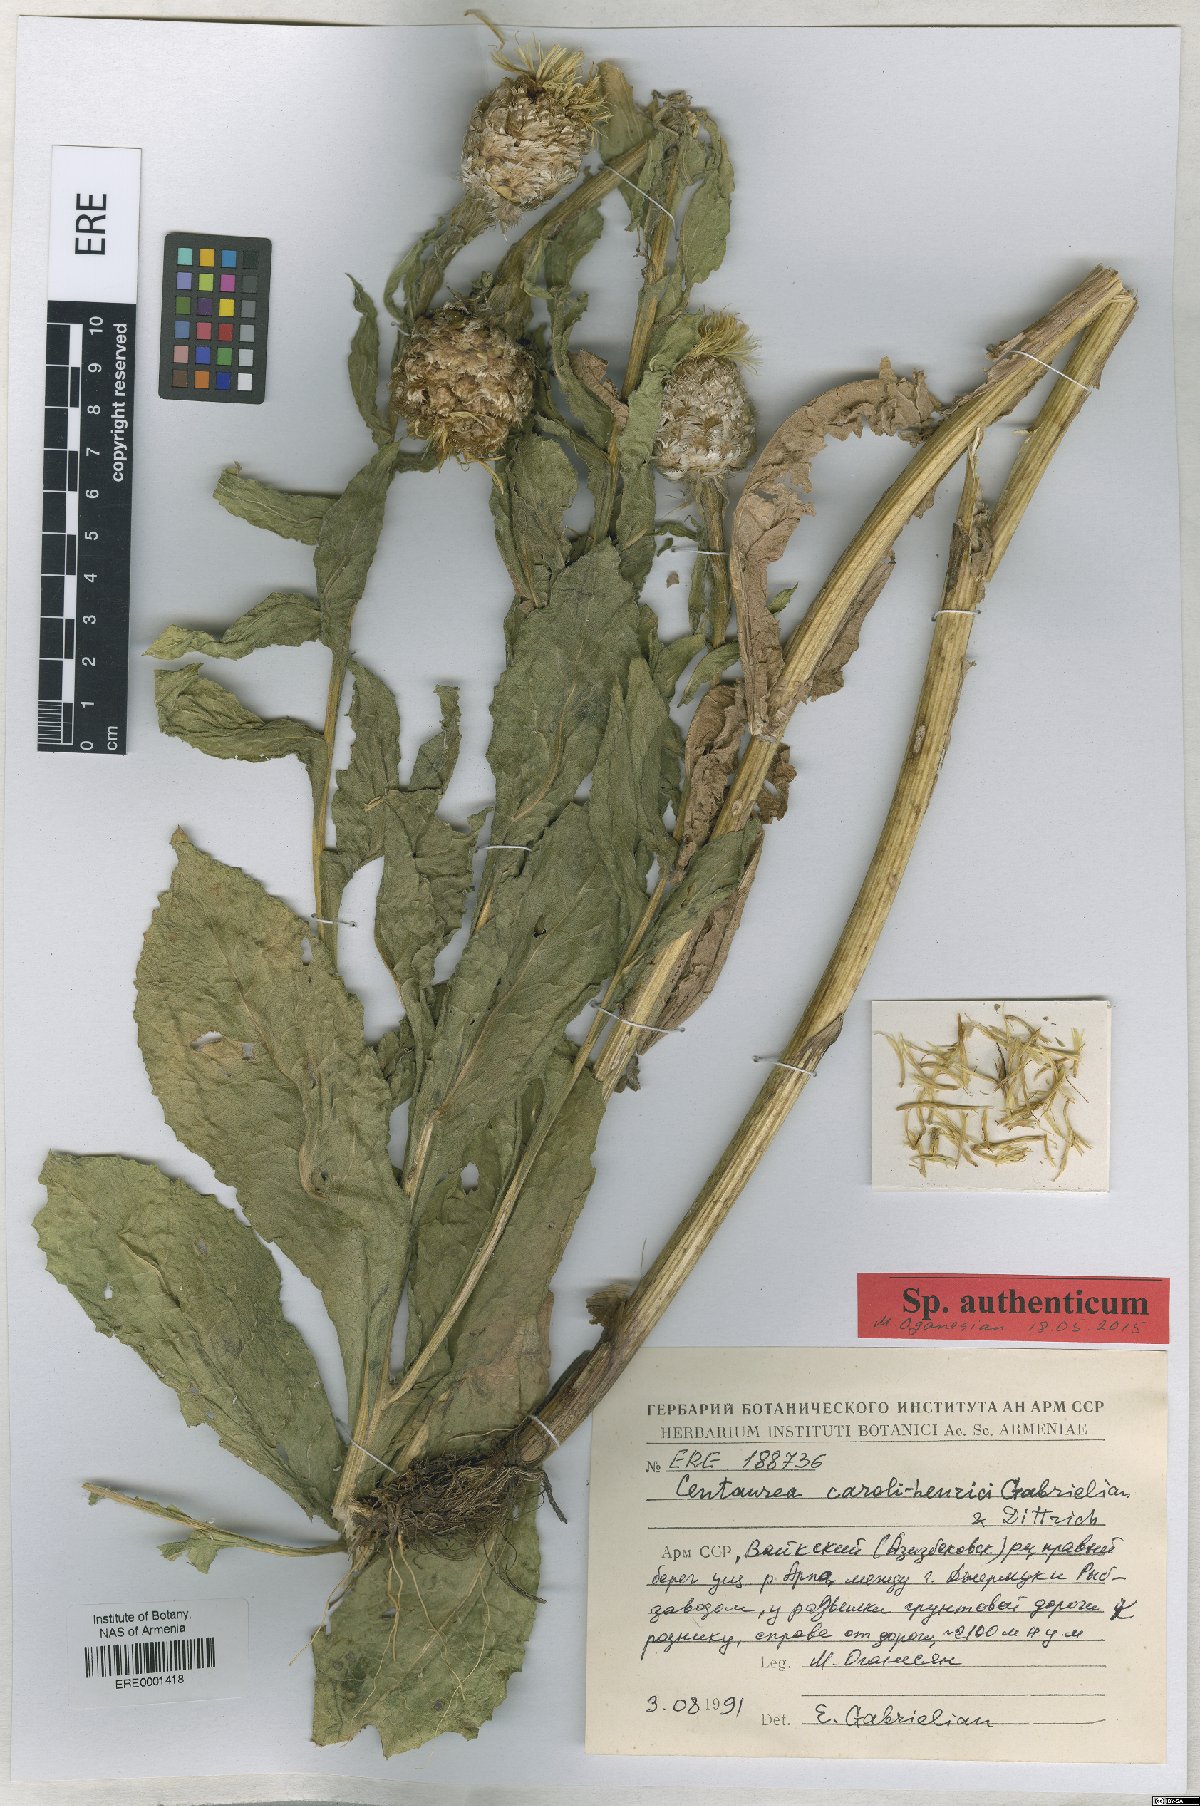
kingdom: Plantae
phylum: Tracheophyta
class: Magnoliopsida
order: Asterales
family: Asteraceae
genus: Centaurea
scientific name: Centaurea caroli-henrici
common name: Karl-henrikh's centaury
